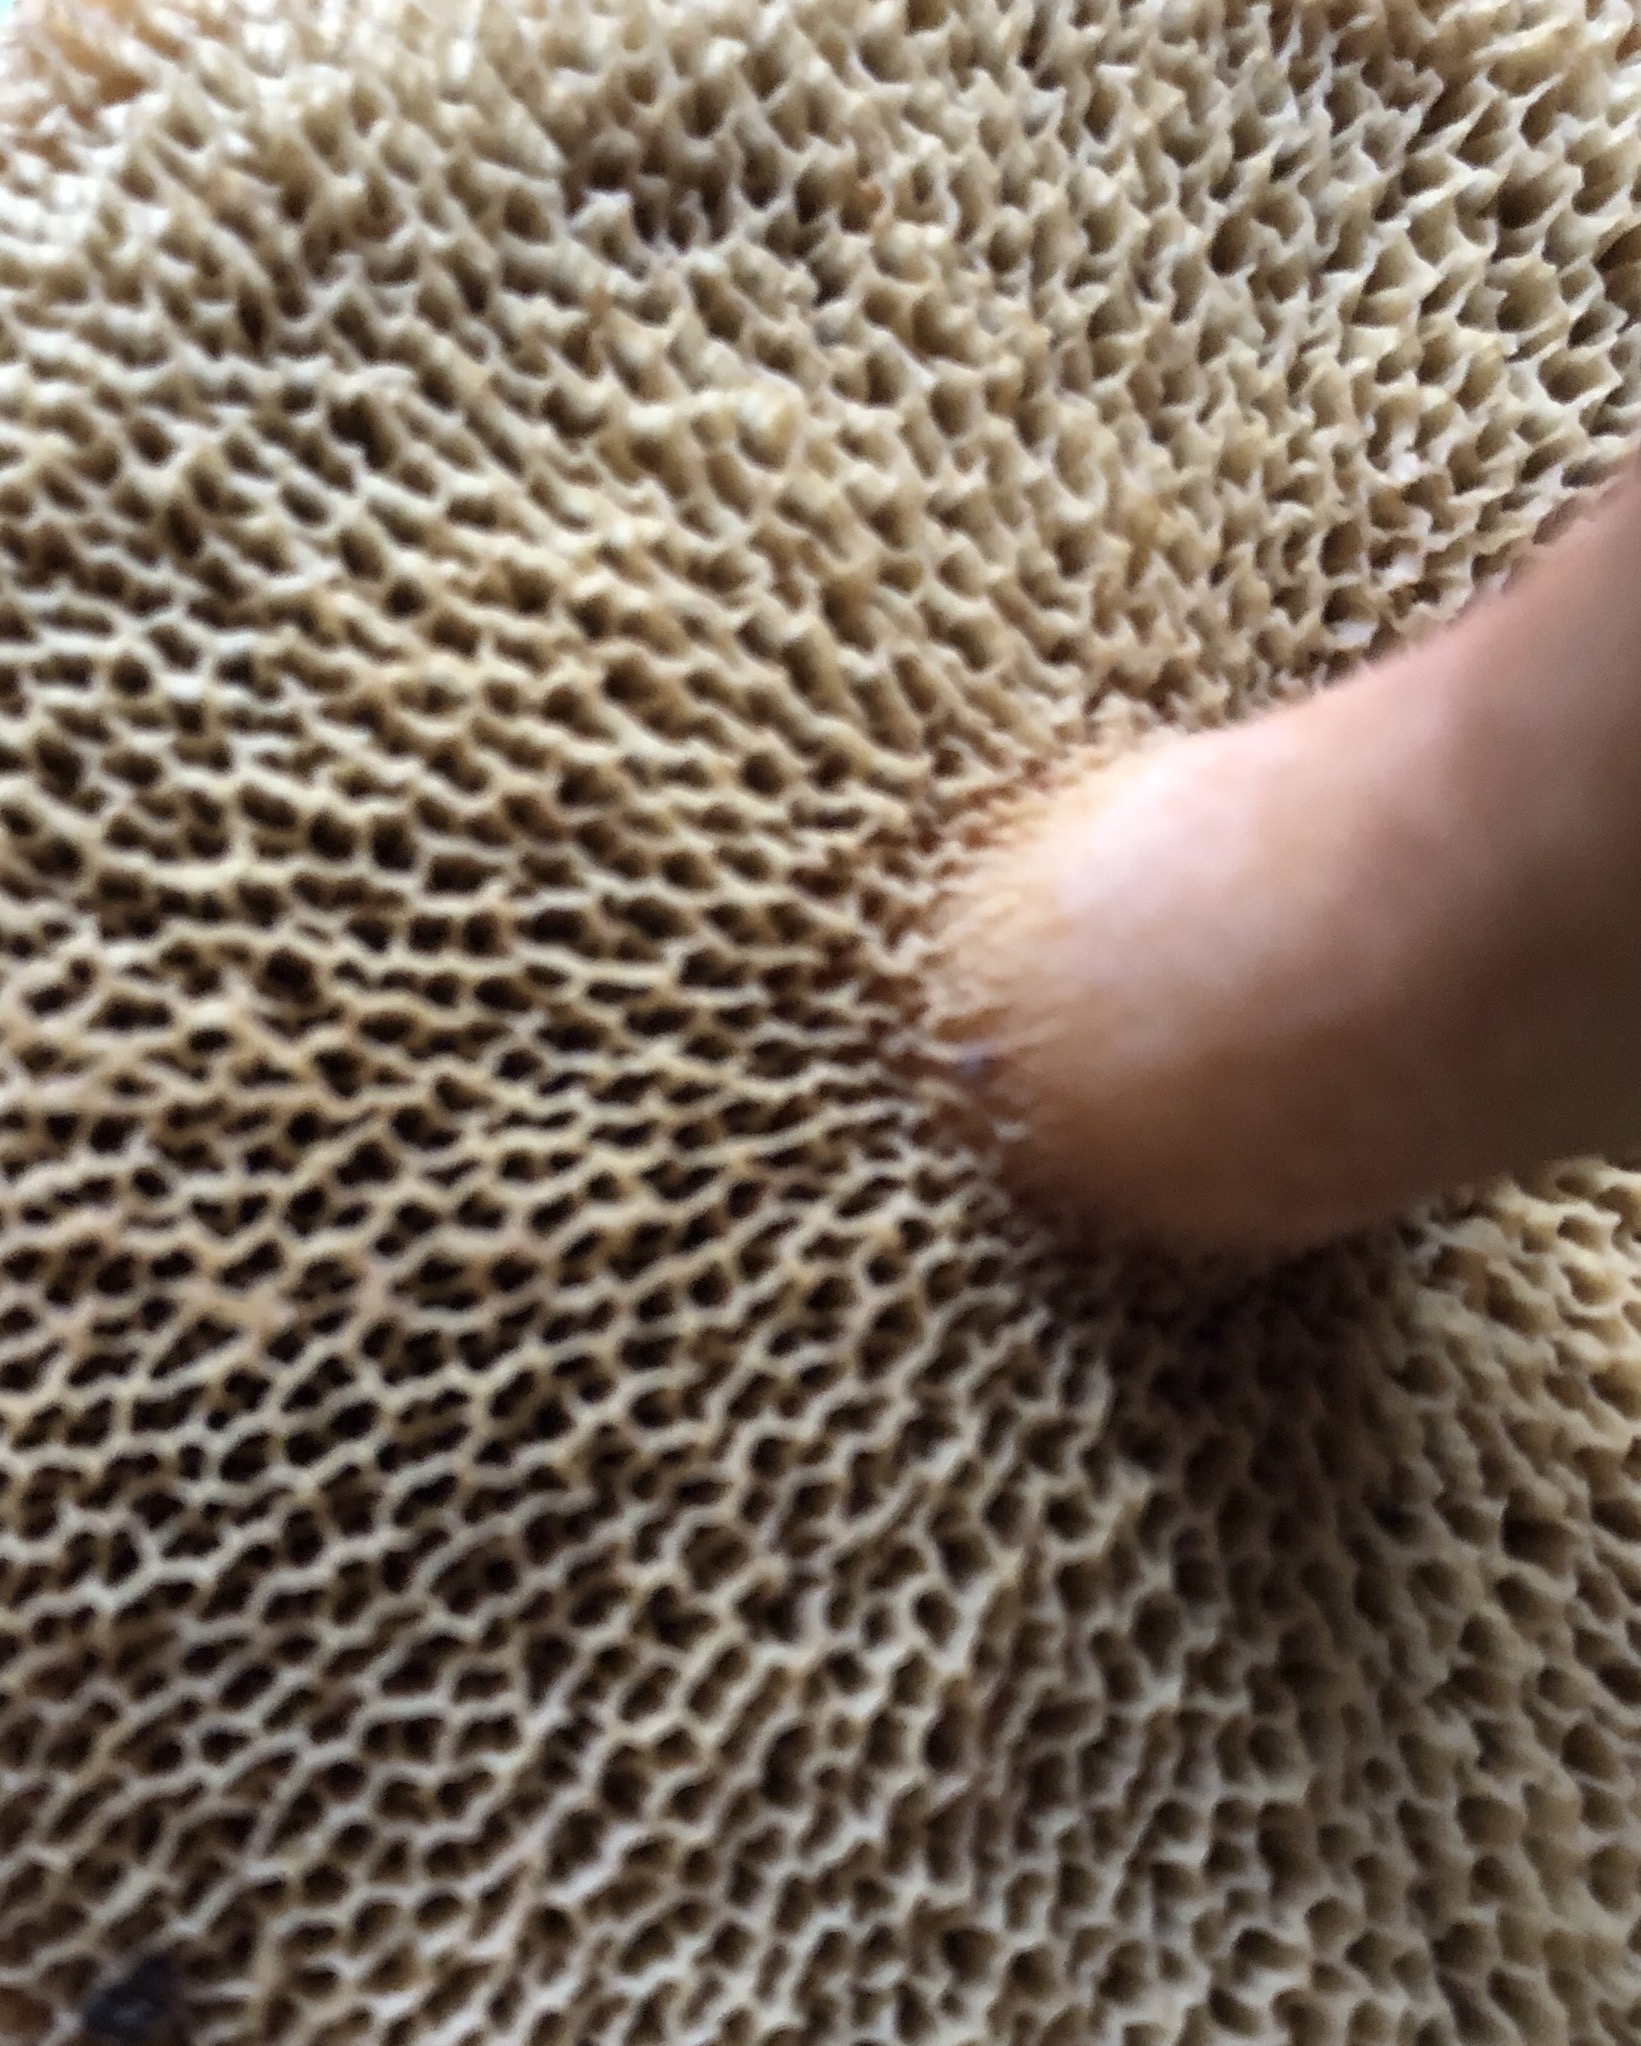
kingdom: Fungi
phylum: Basidiomycota
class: Agaricomycetes
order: Boletales
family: Suillaceae
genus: Suillus
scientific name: Suillus bovinus
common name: grovporet slimrørhat
